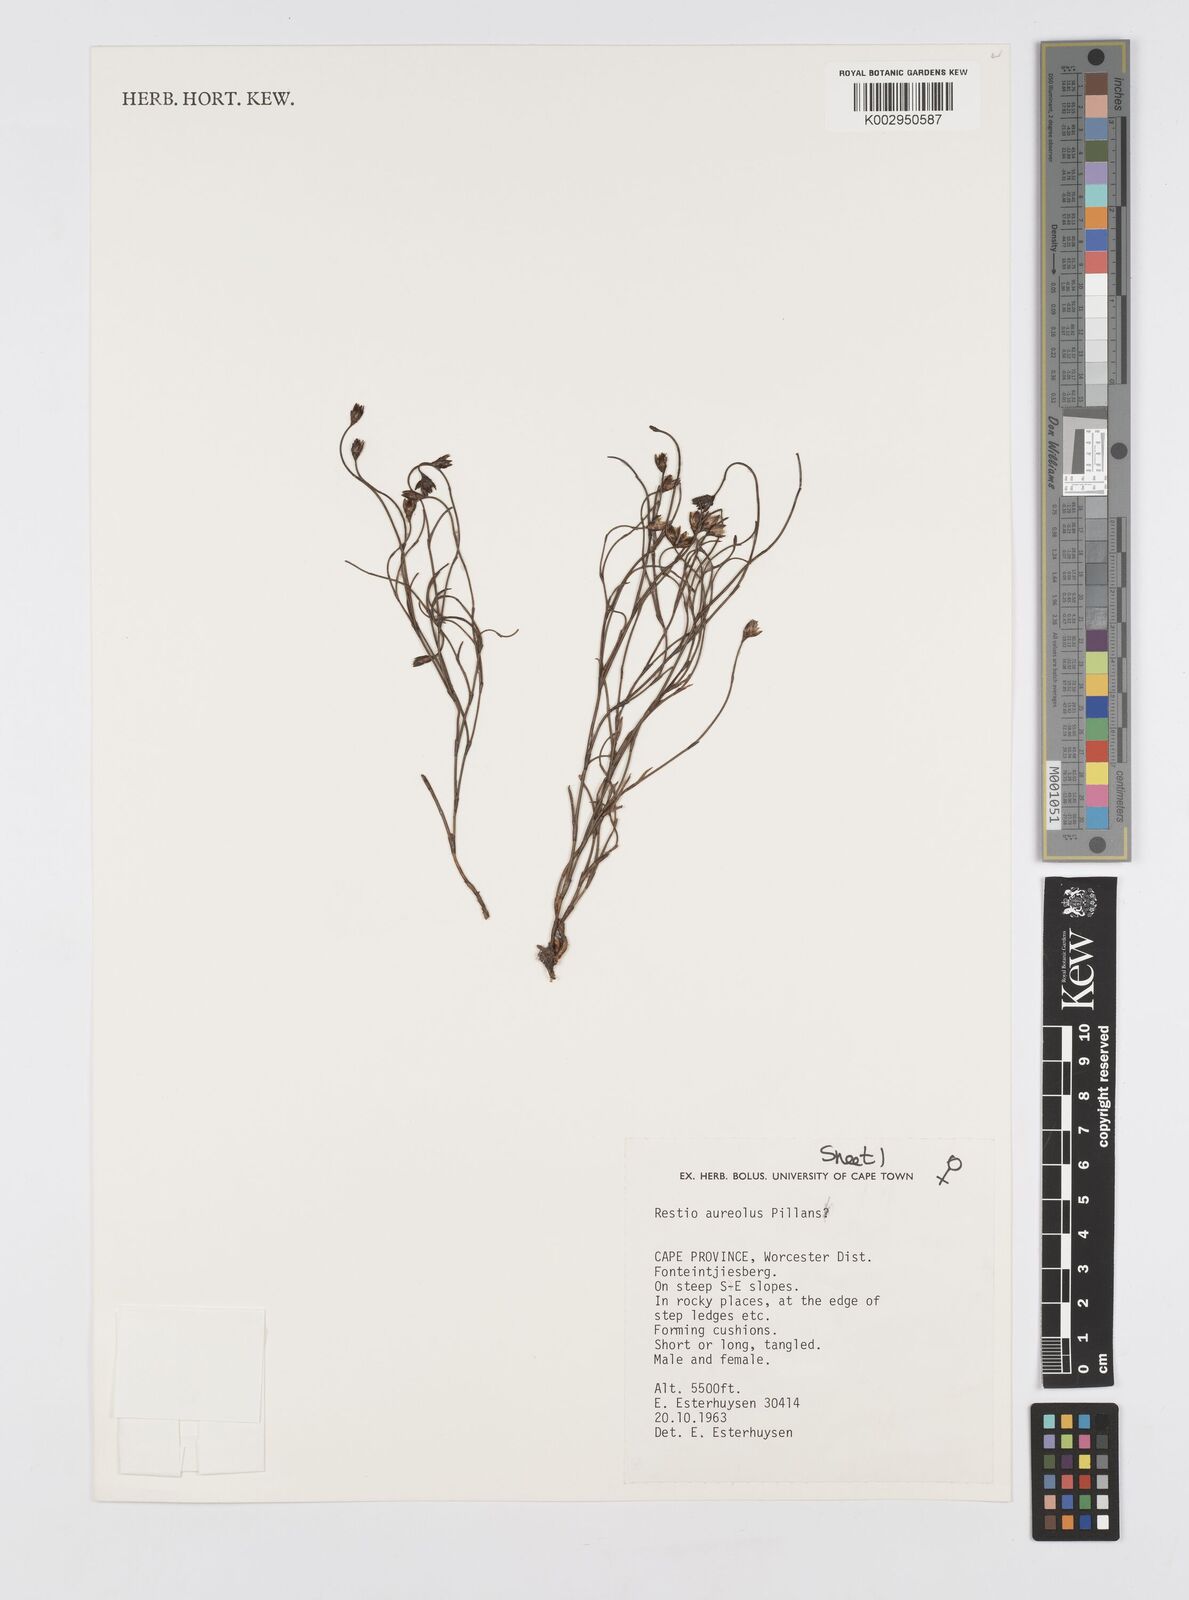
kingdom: Plantae
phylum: Tracheophyta
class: Liliopsida
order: Poales
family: Restionaceae
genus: Restio
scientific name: Restio aureolus
